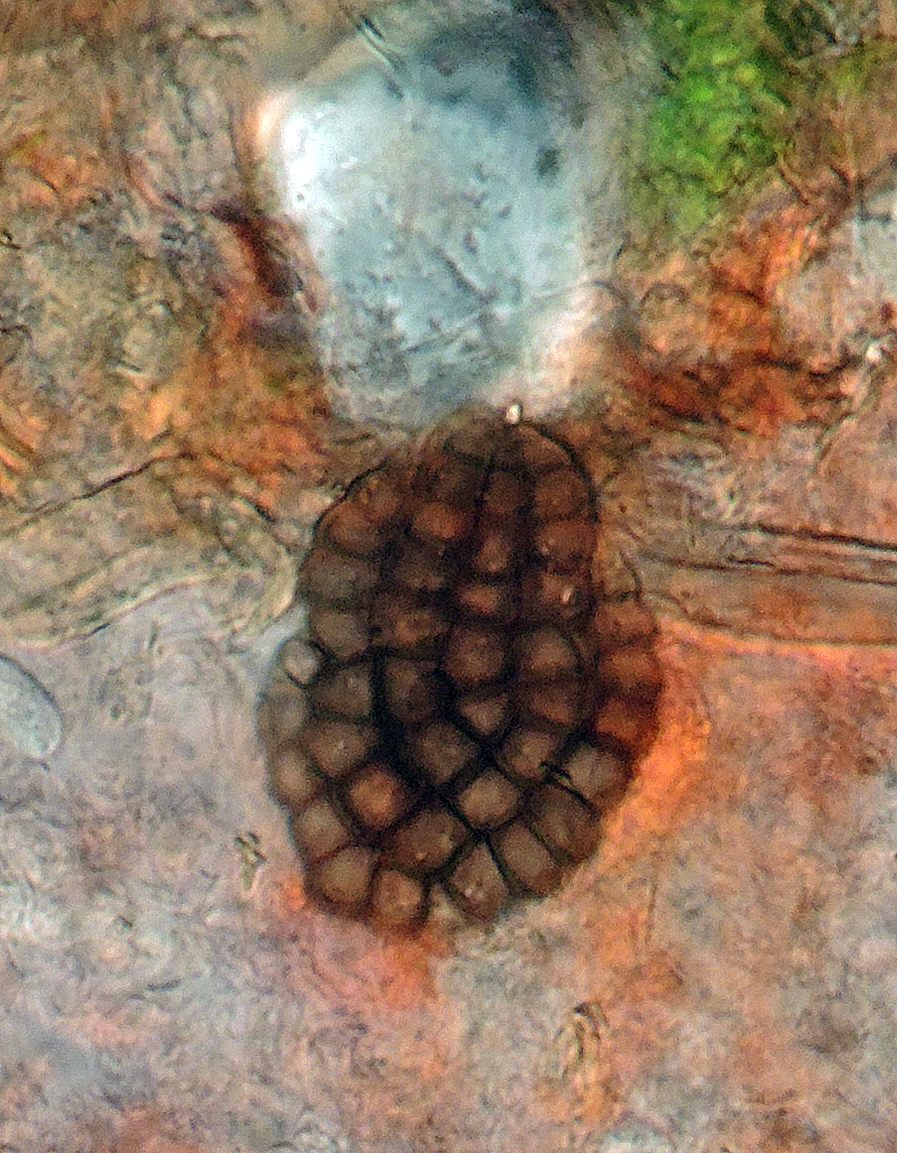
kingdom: Fungi
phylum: Ascomycota
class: Dothideomycetes
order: Pleosporales
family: Dictyosporiaceae
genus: Jalapriya
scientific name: Jalapriya toruloides
